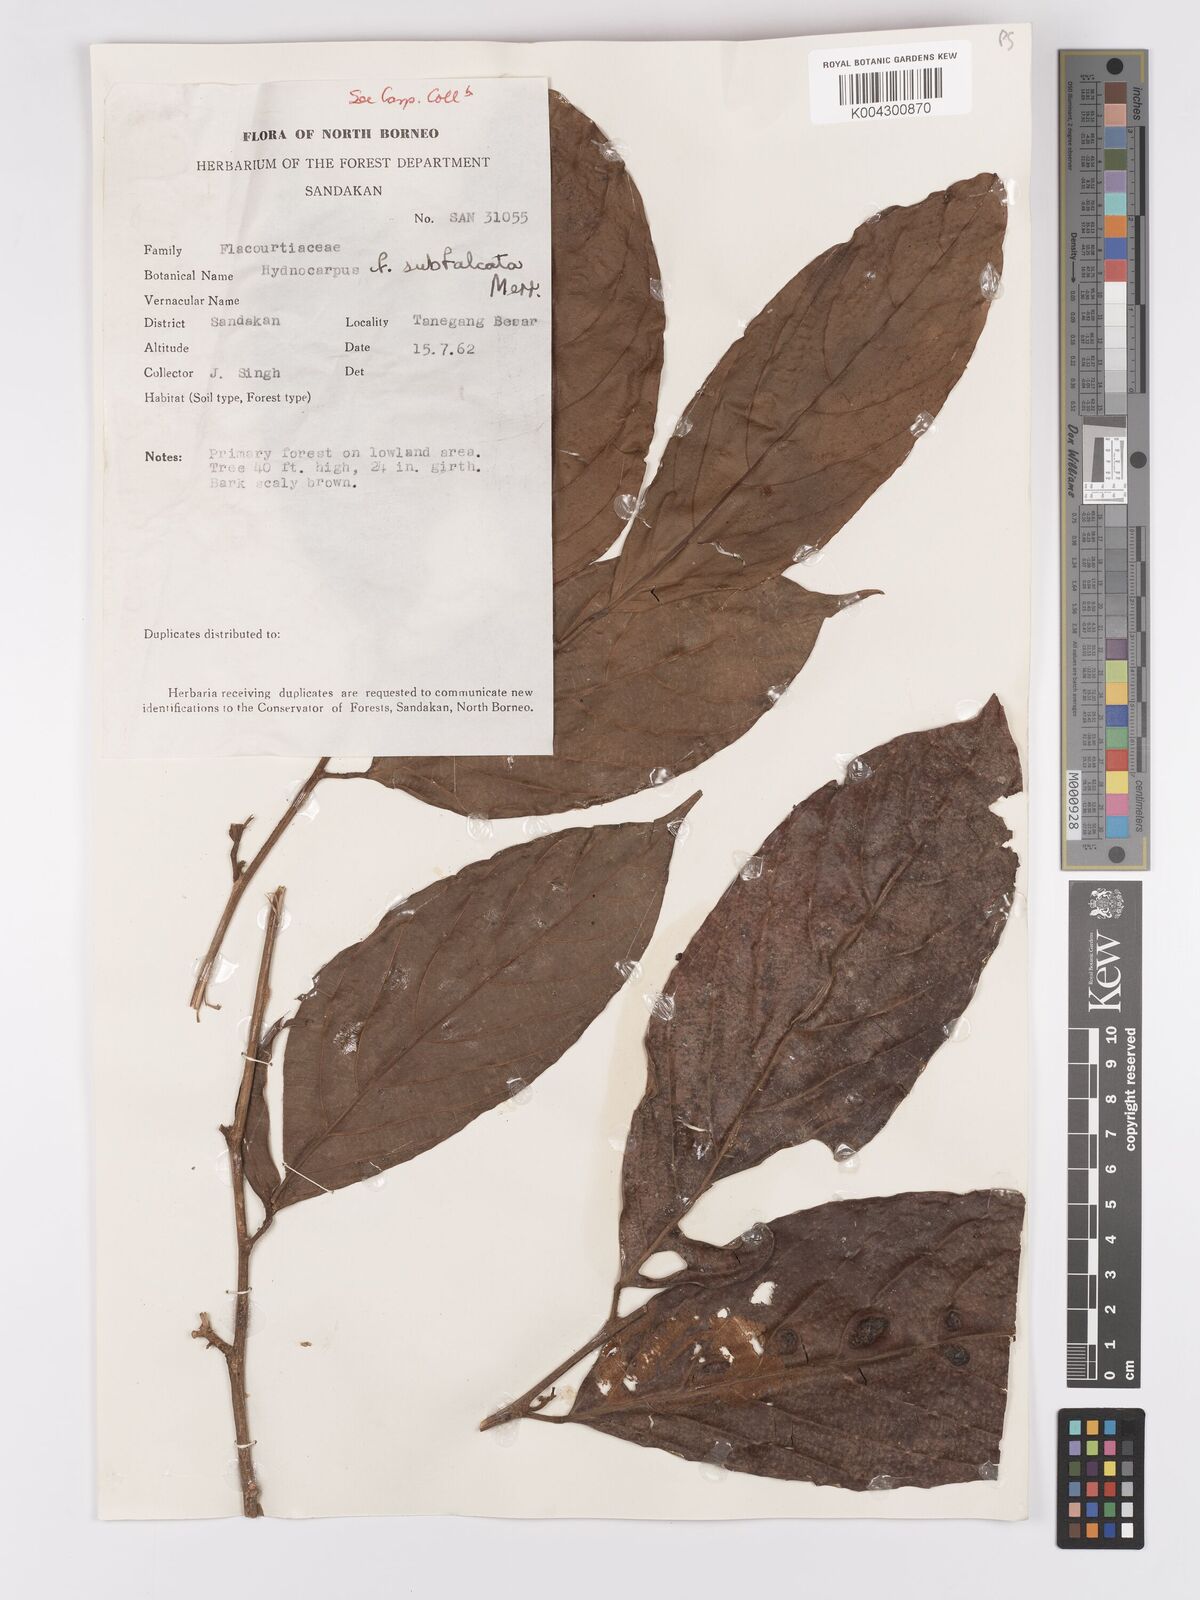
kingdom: Plantae
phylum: Tracheophyta
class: Magnoliopsida
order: Malpighiales
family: Achariaceae
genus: Hydnocarpus
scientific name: Hydnocarpus subfalcatus
